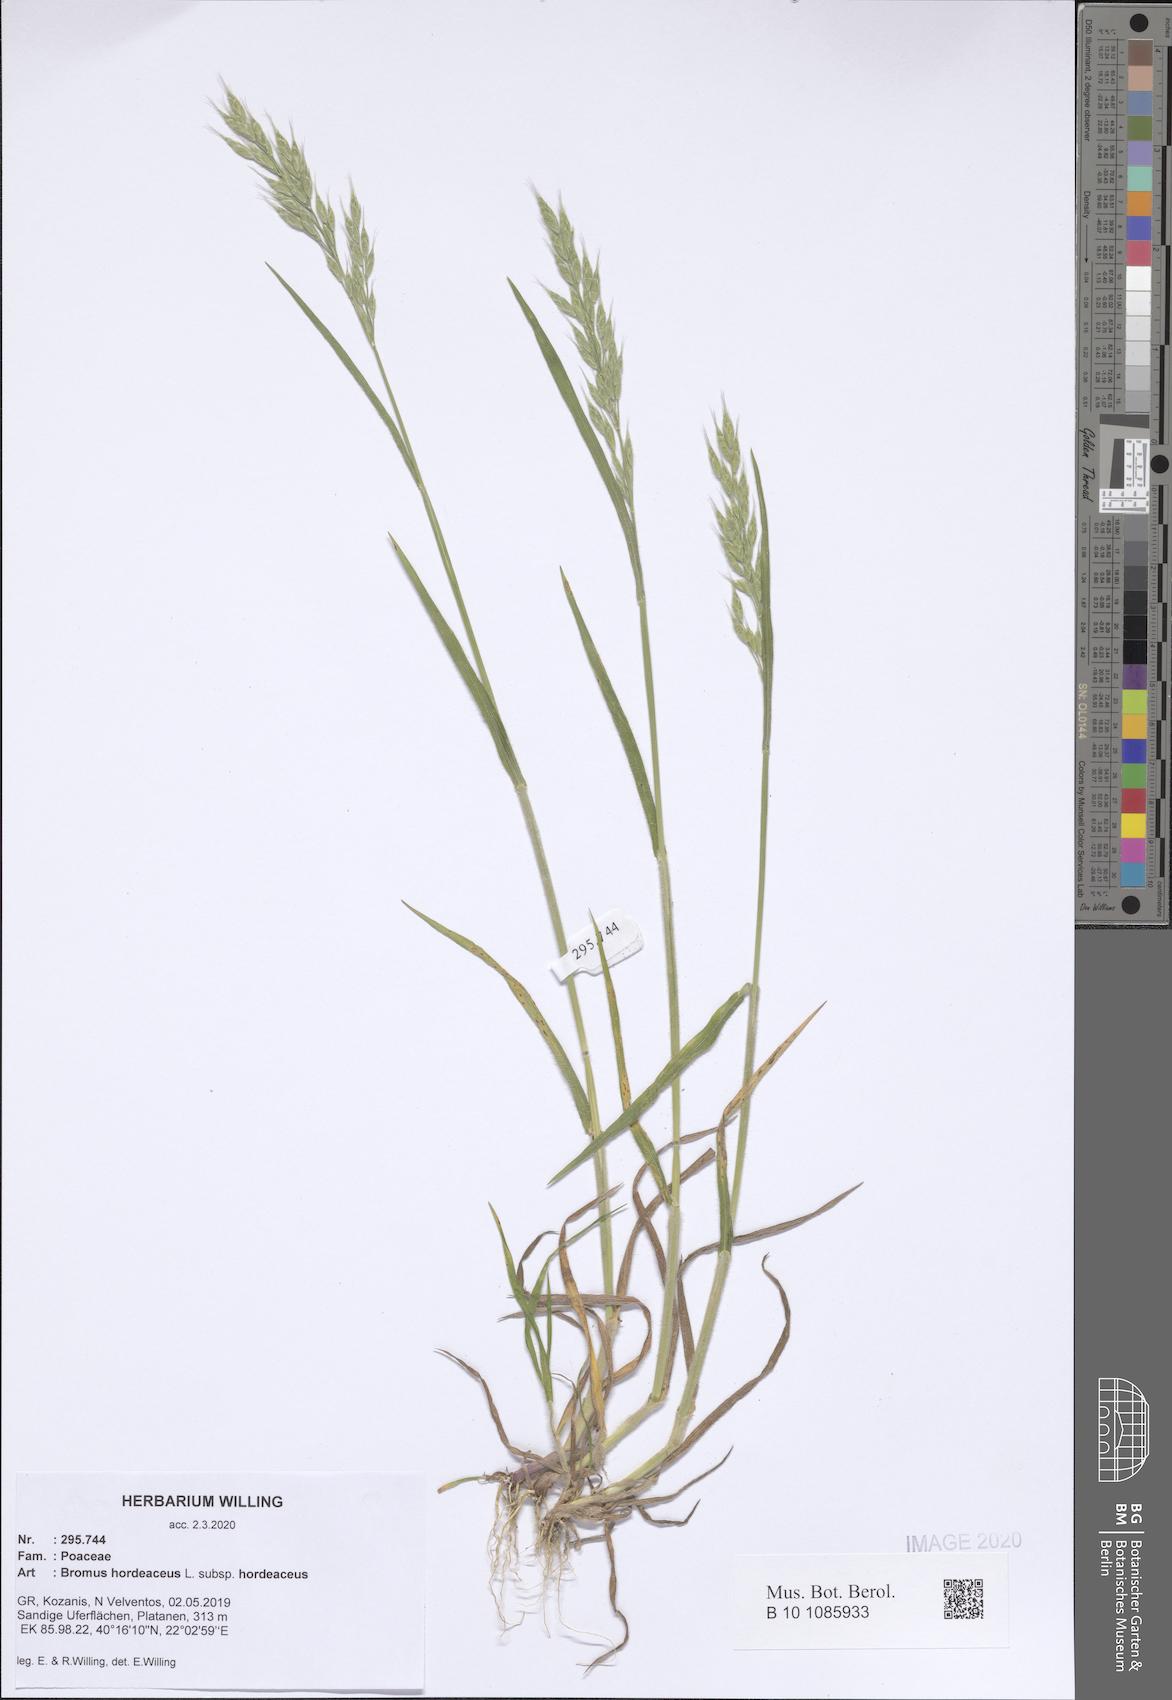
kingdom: Plantae
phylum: Tracheophyta
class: Liliopsida
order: Poales
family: Poaceae
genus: Bromus
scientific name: Bromus hordeaceus
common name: Soft brome
